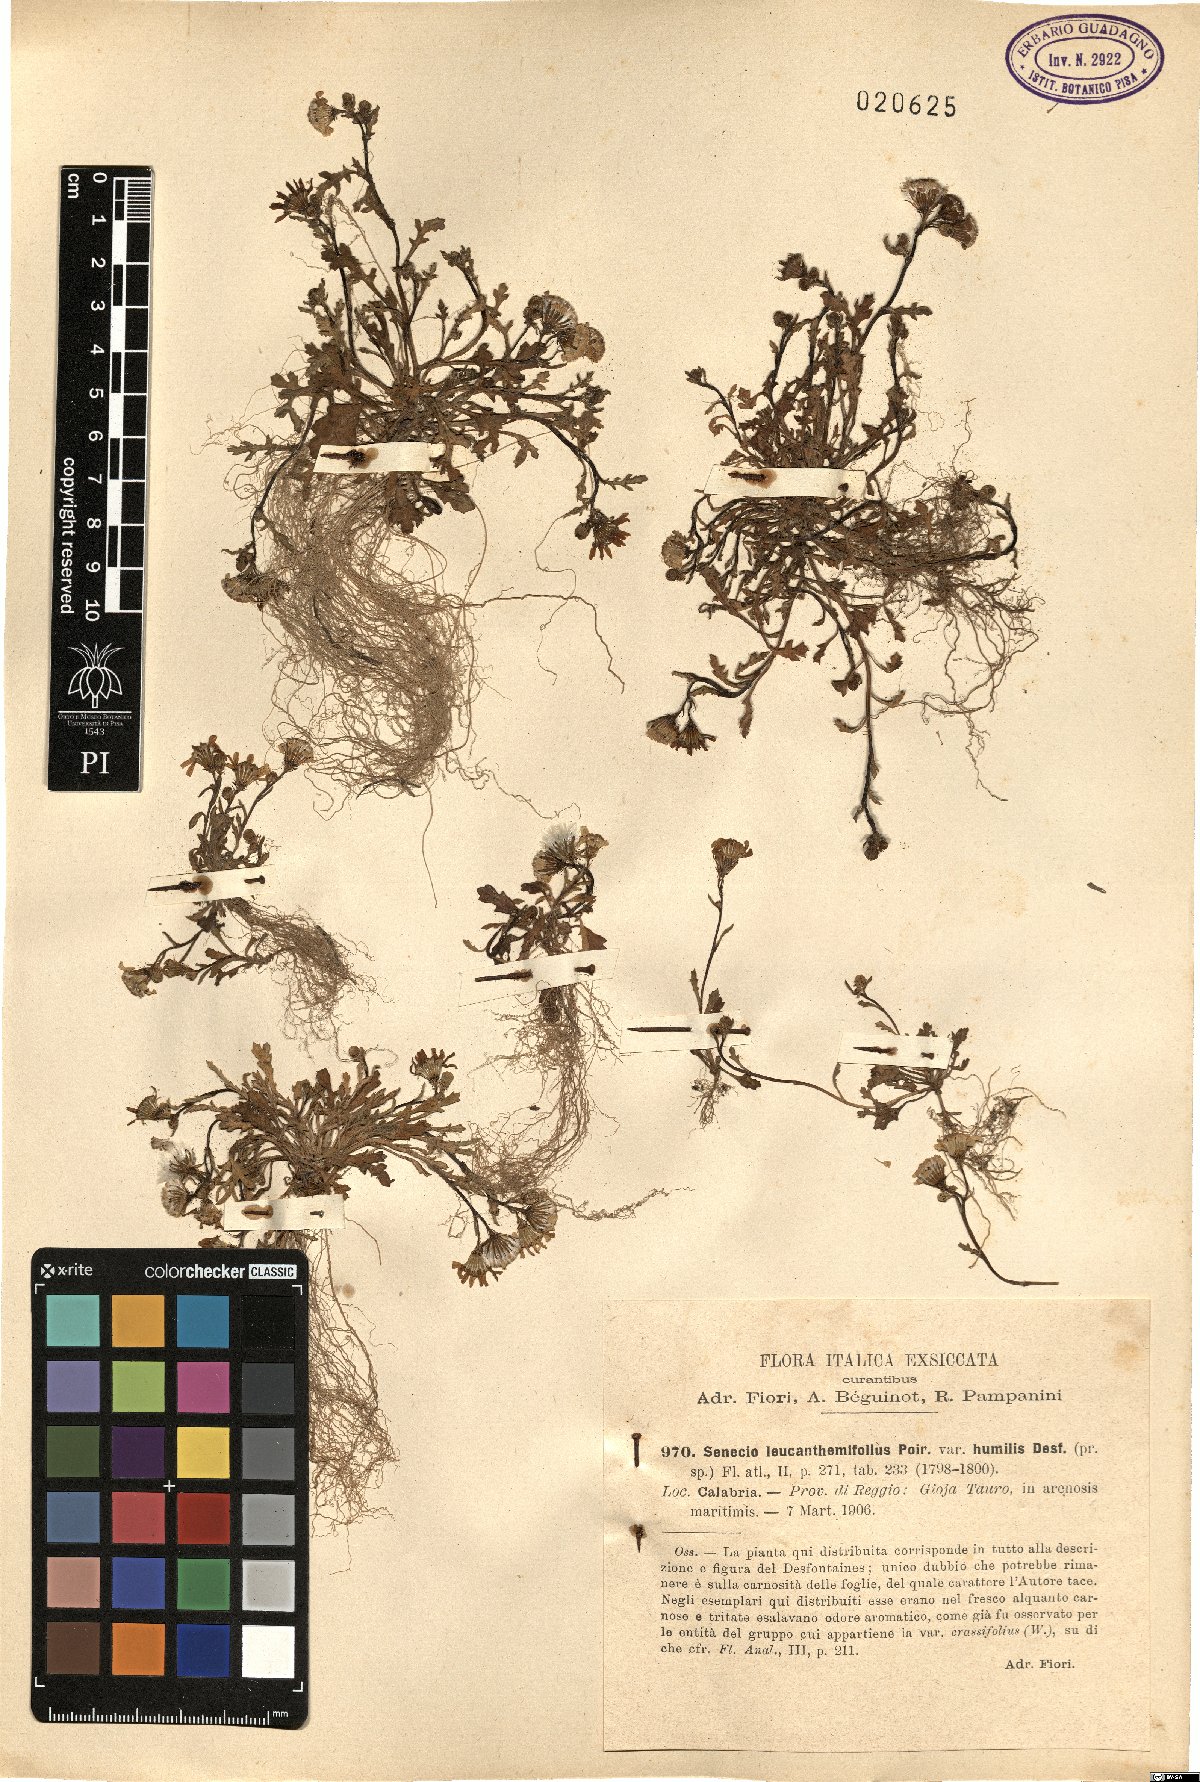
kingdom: Plantae
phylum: Tracheophyta
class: Magnoliopsida
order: Asterales
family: Asteraceae
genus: Senecio
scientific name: Senecio leucanthemifolius
